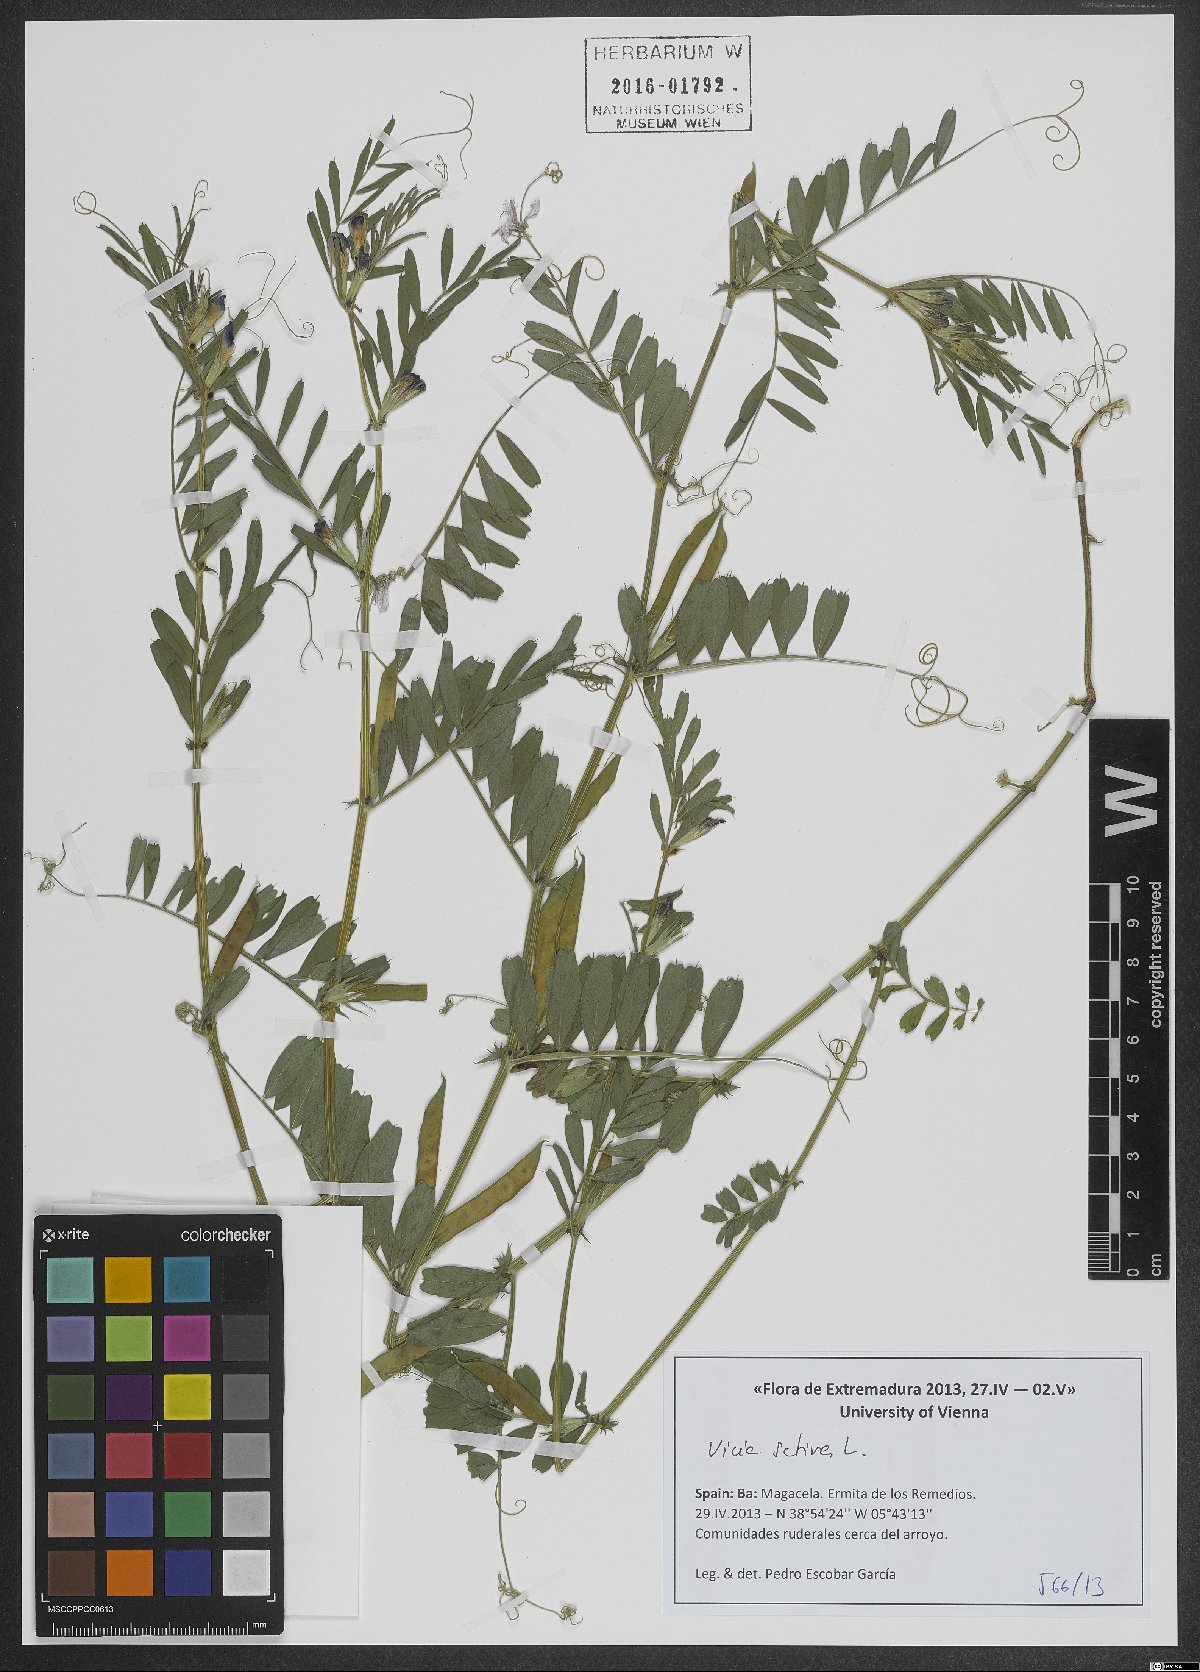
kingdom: Plantae
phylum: Tracheophyta
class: Magnoliopsida
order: Fabales
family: Fabaceae
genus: Vicia
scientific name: Vicia sativa
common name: Garden vetch
